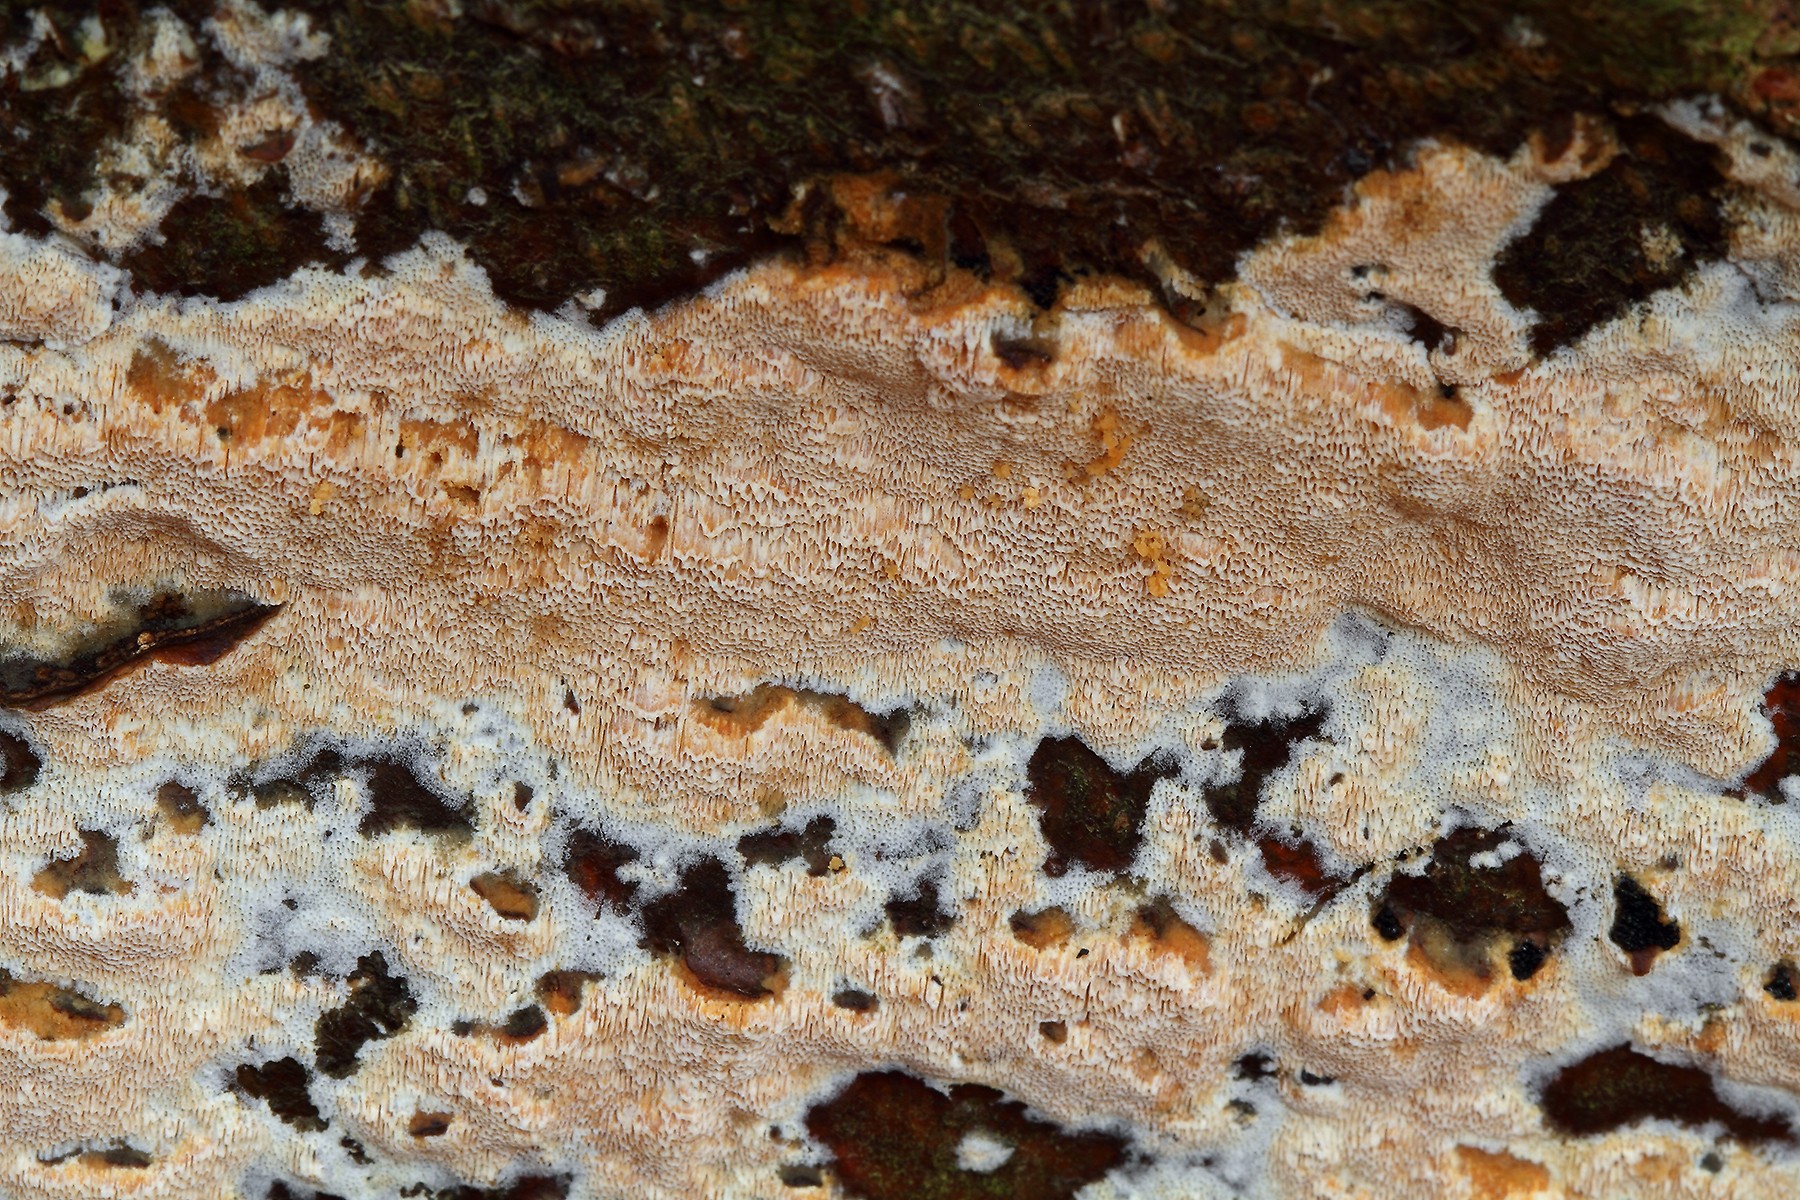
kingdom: Fungi
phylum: Basidiomycota
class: Agaricomycetes
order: Polyporales
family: Meruliaceae
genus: Mycoacia
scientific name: Mycoacia gilvescens
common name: rosa pastelporesvamp
